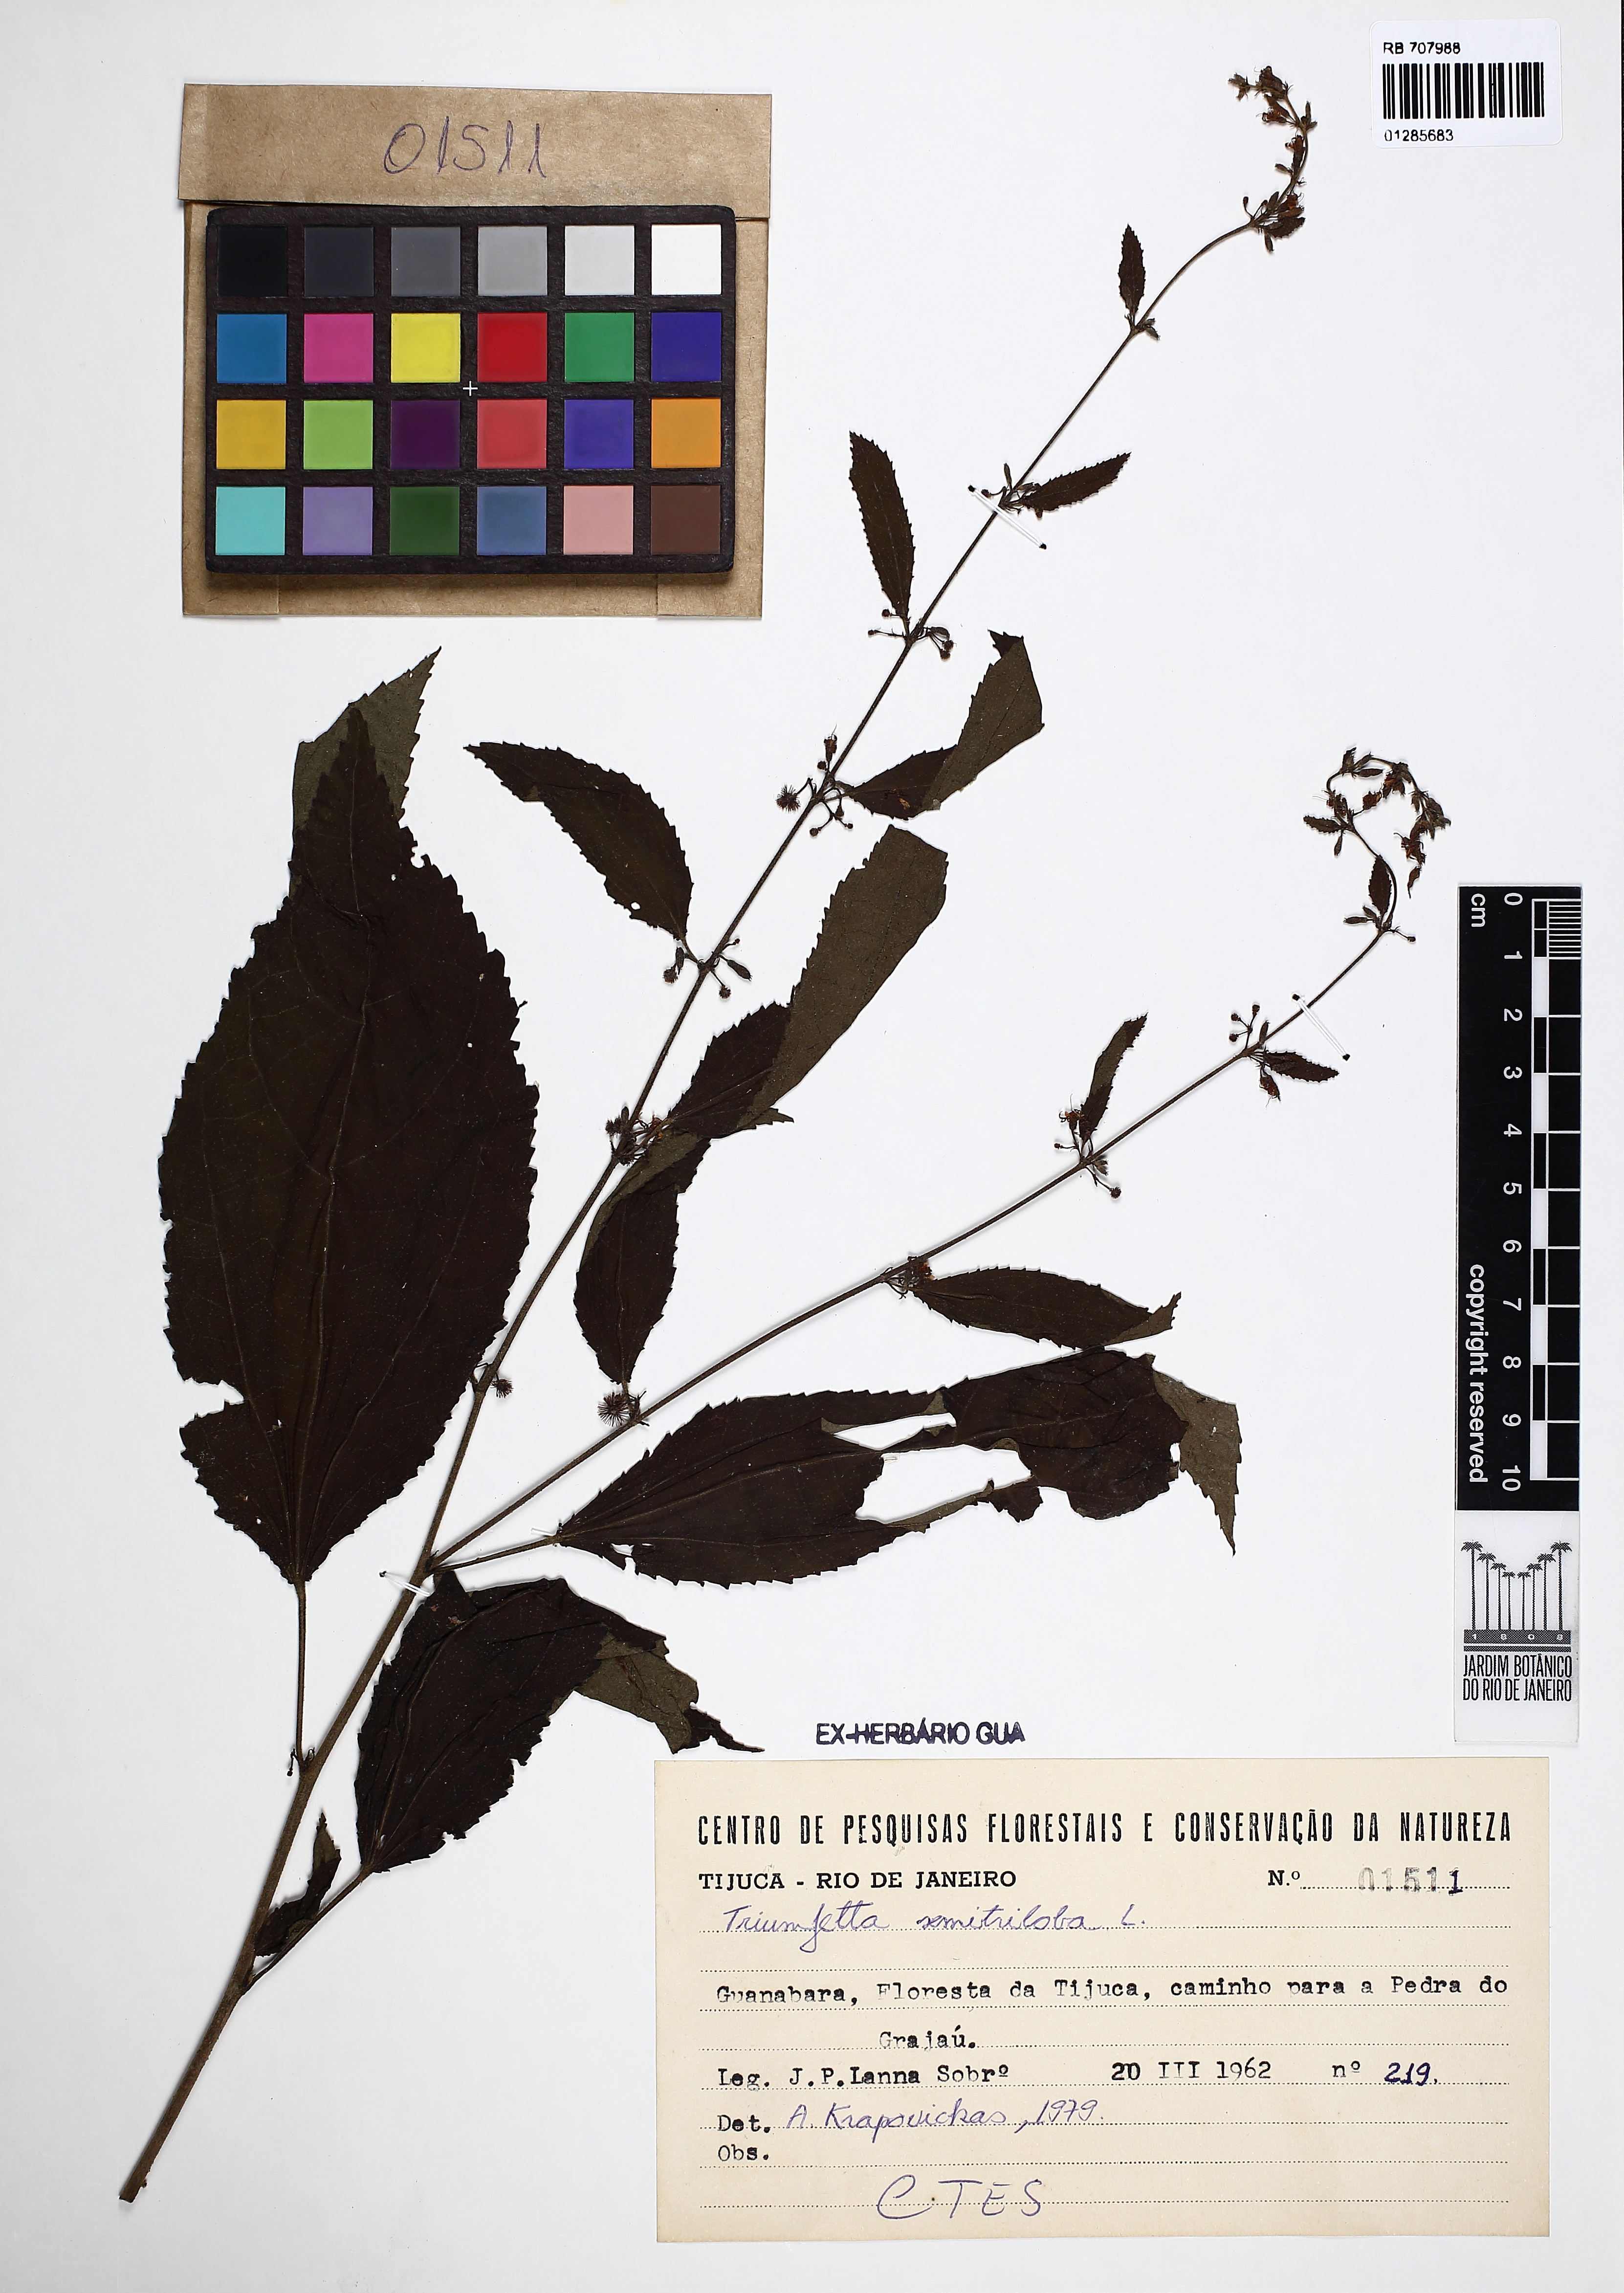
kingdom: Plantae
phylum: Tracheophyta
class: Magnoliopsida
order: Malvales
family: Malvaceae
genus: Triumfetta
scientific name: Triumfetta obscura
